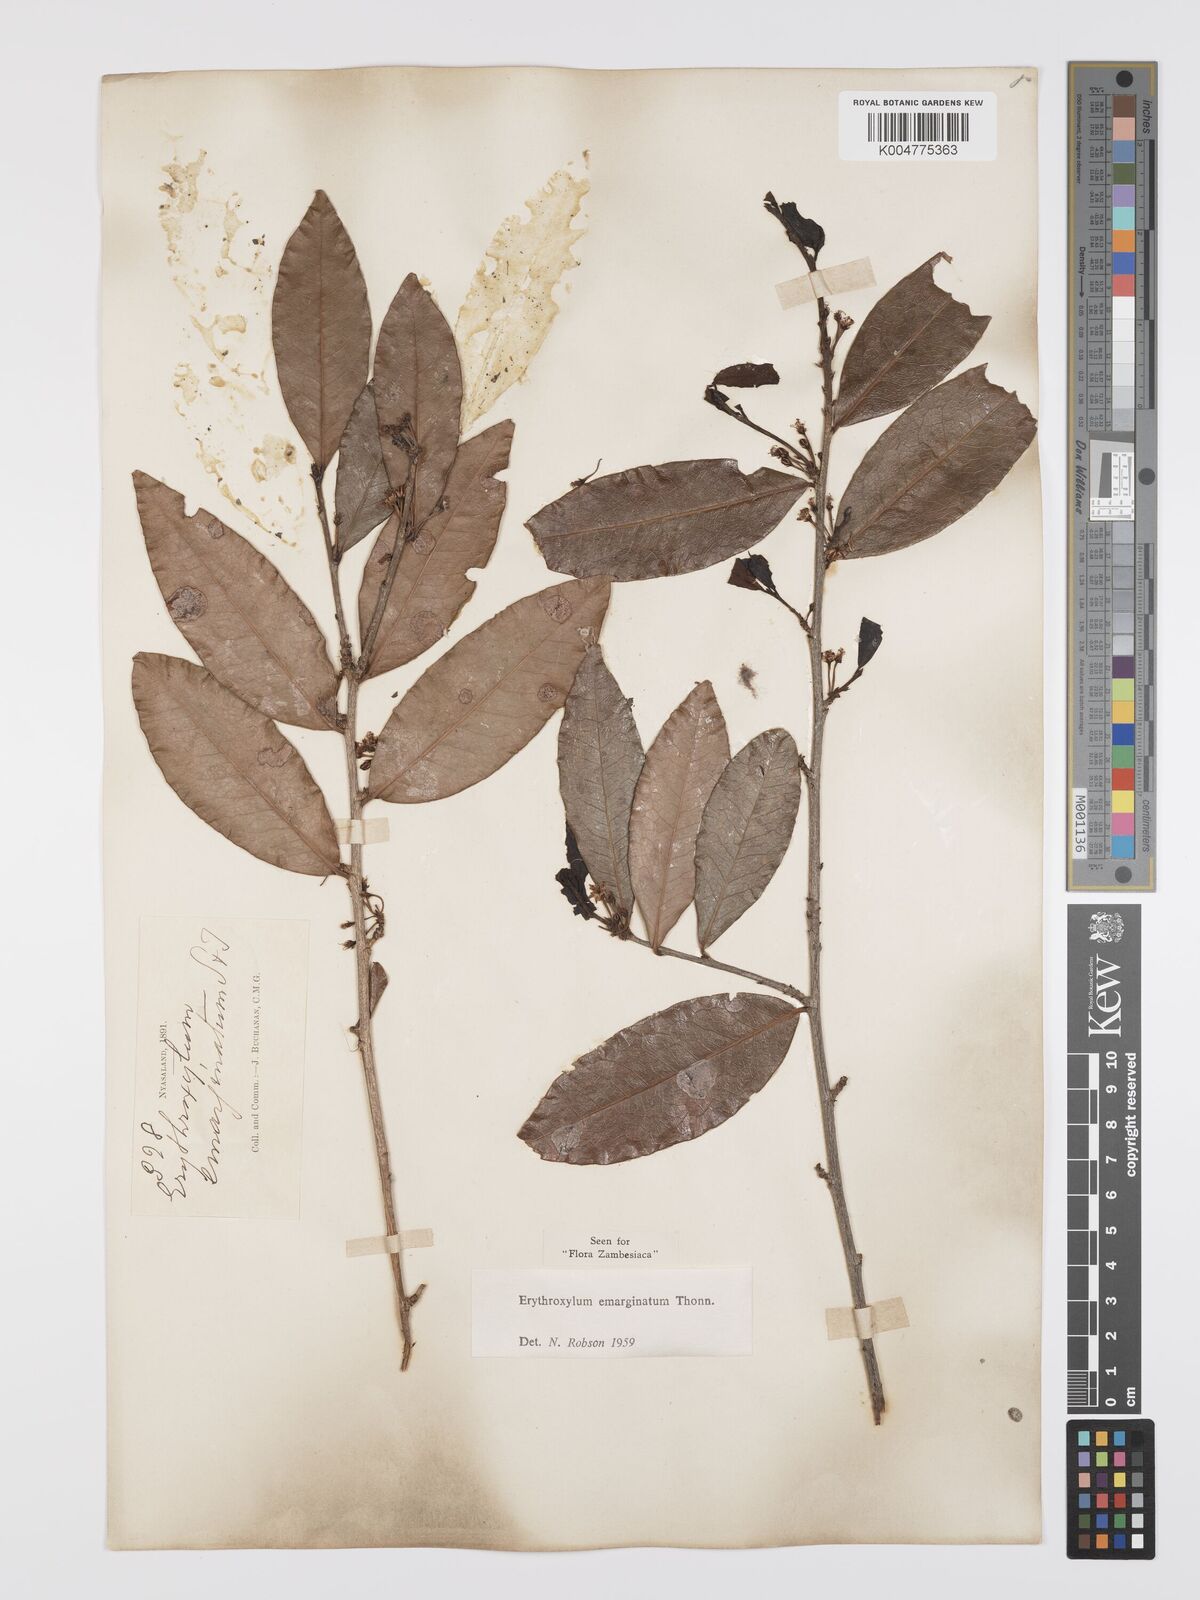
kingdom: Plantae
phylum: Tracheophyta
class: Magnoliopsida
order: Malpighiales
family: Erythroxylaceae
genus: Erythroxylum
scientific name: Erythroxylum emarginatum
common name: African coca-tree
